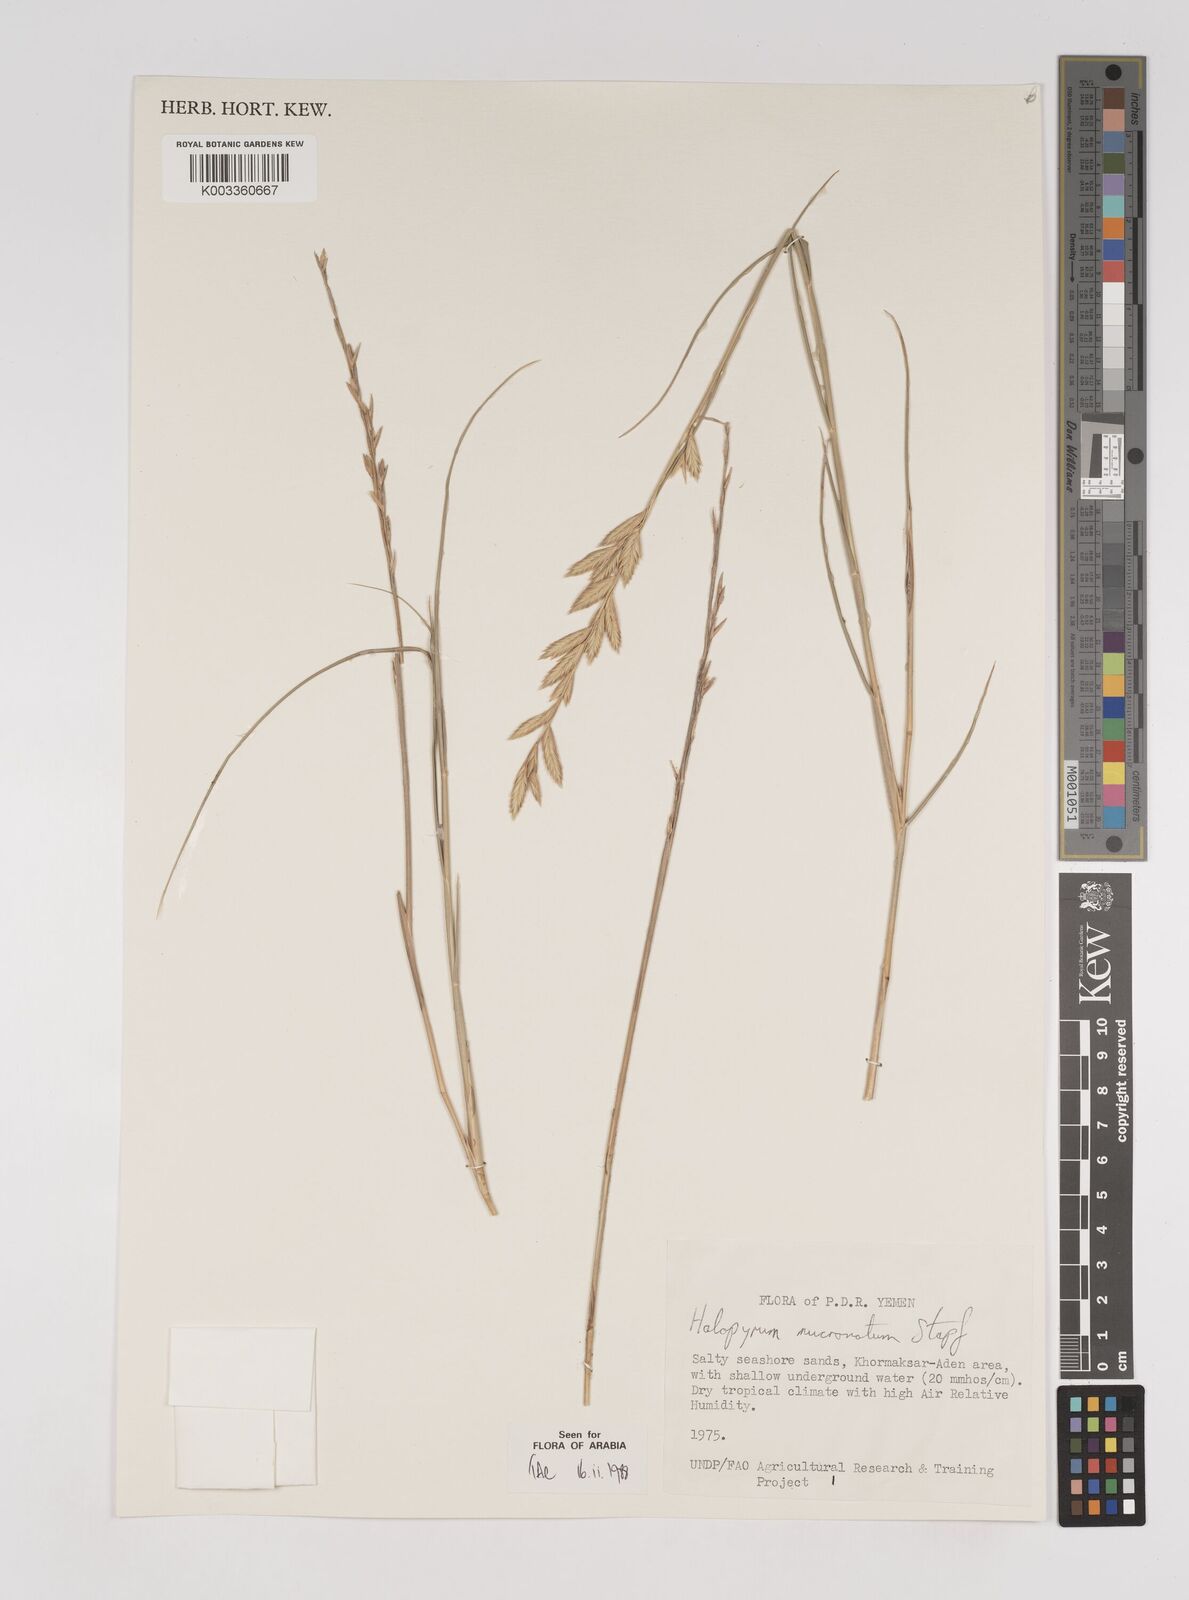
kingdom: Plantae
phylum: Tracheophyta
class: Liliopsida
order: Poales
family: Poaceae
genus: Halopyrum
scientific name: Halopyrum mucronatum
